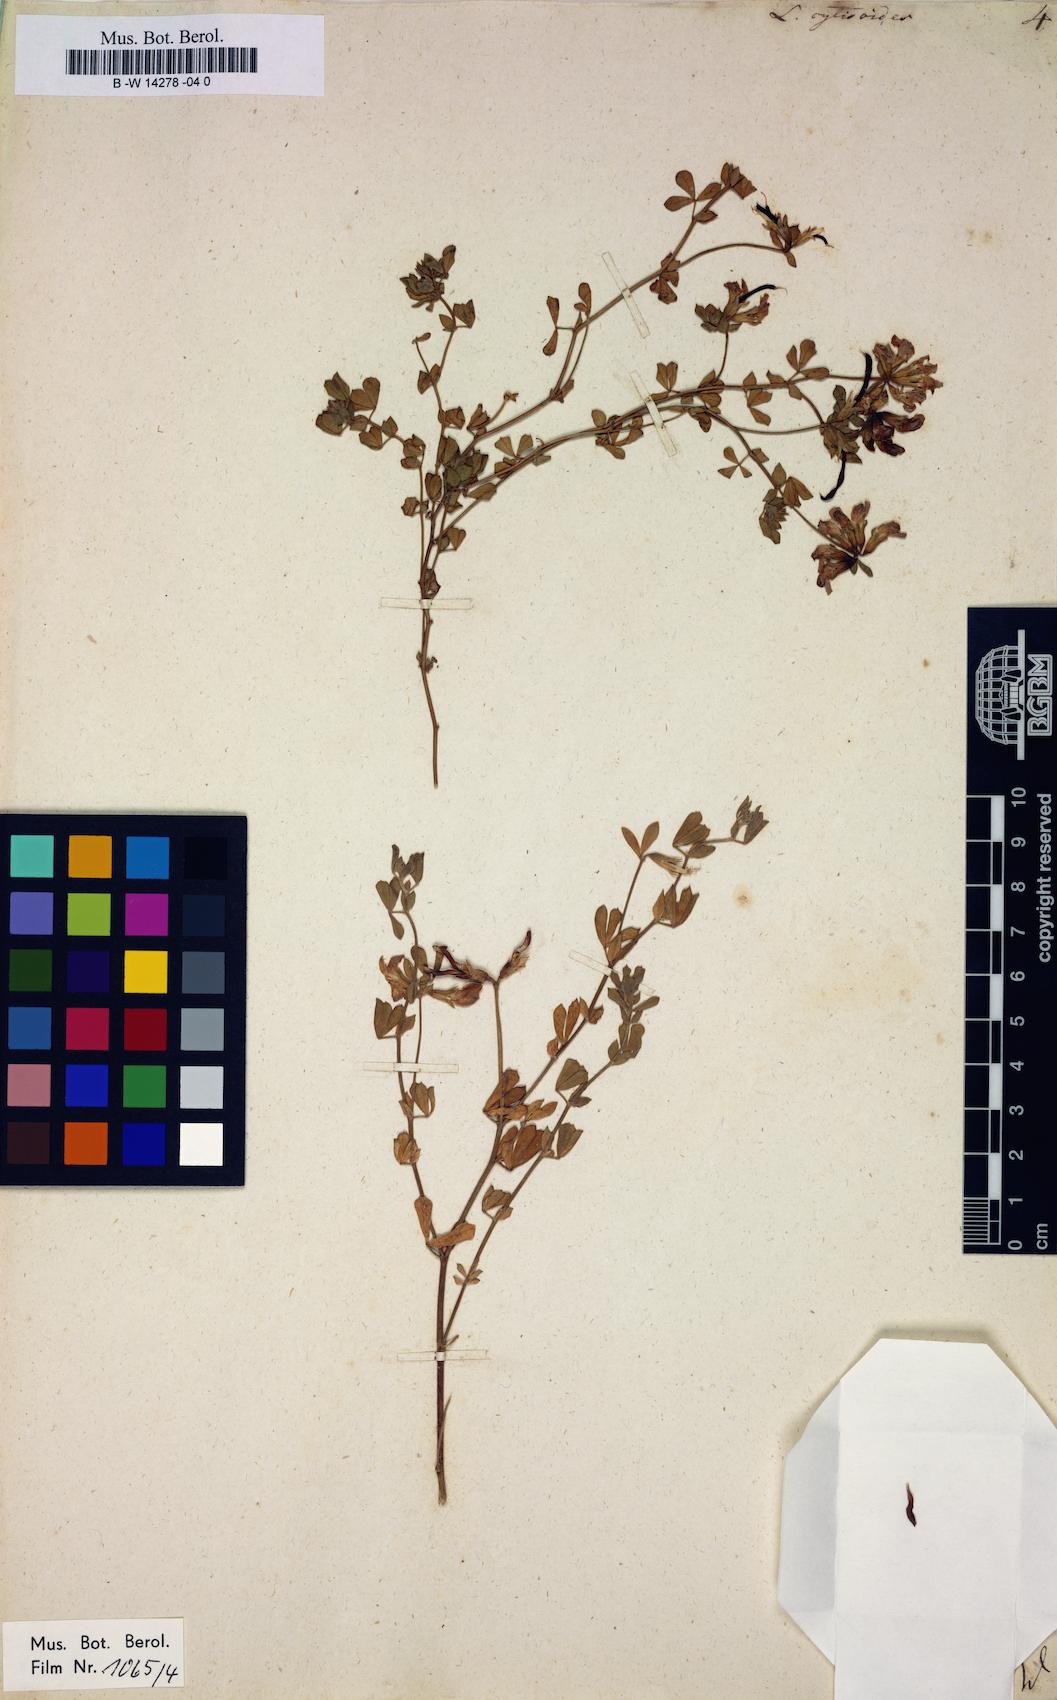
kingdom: Plantae
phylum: Tracheophyta
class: Magnoliopsida
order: Fabales
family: Fabaceae
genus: Lotus
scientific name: Lotus cytisoides
